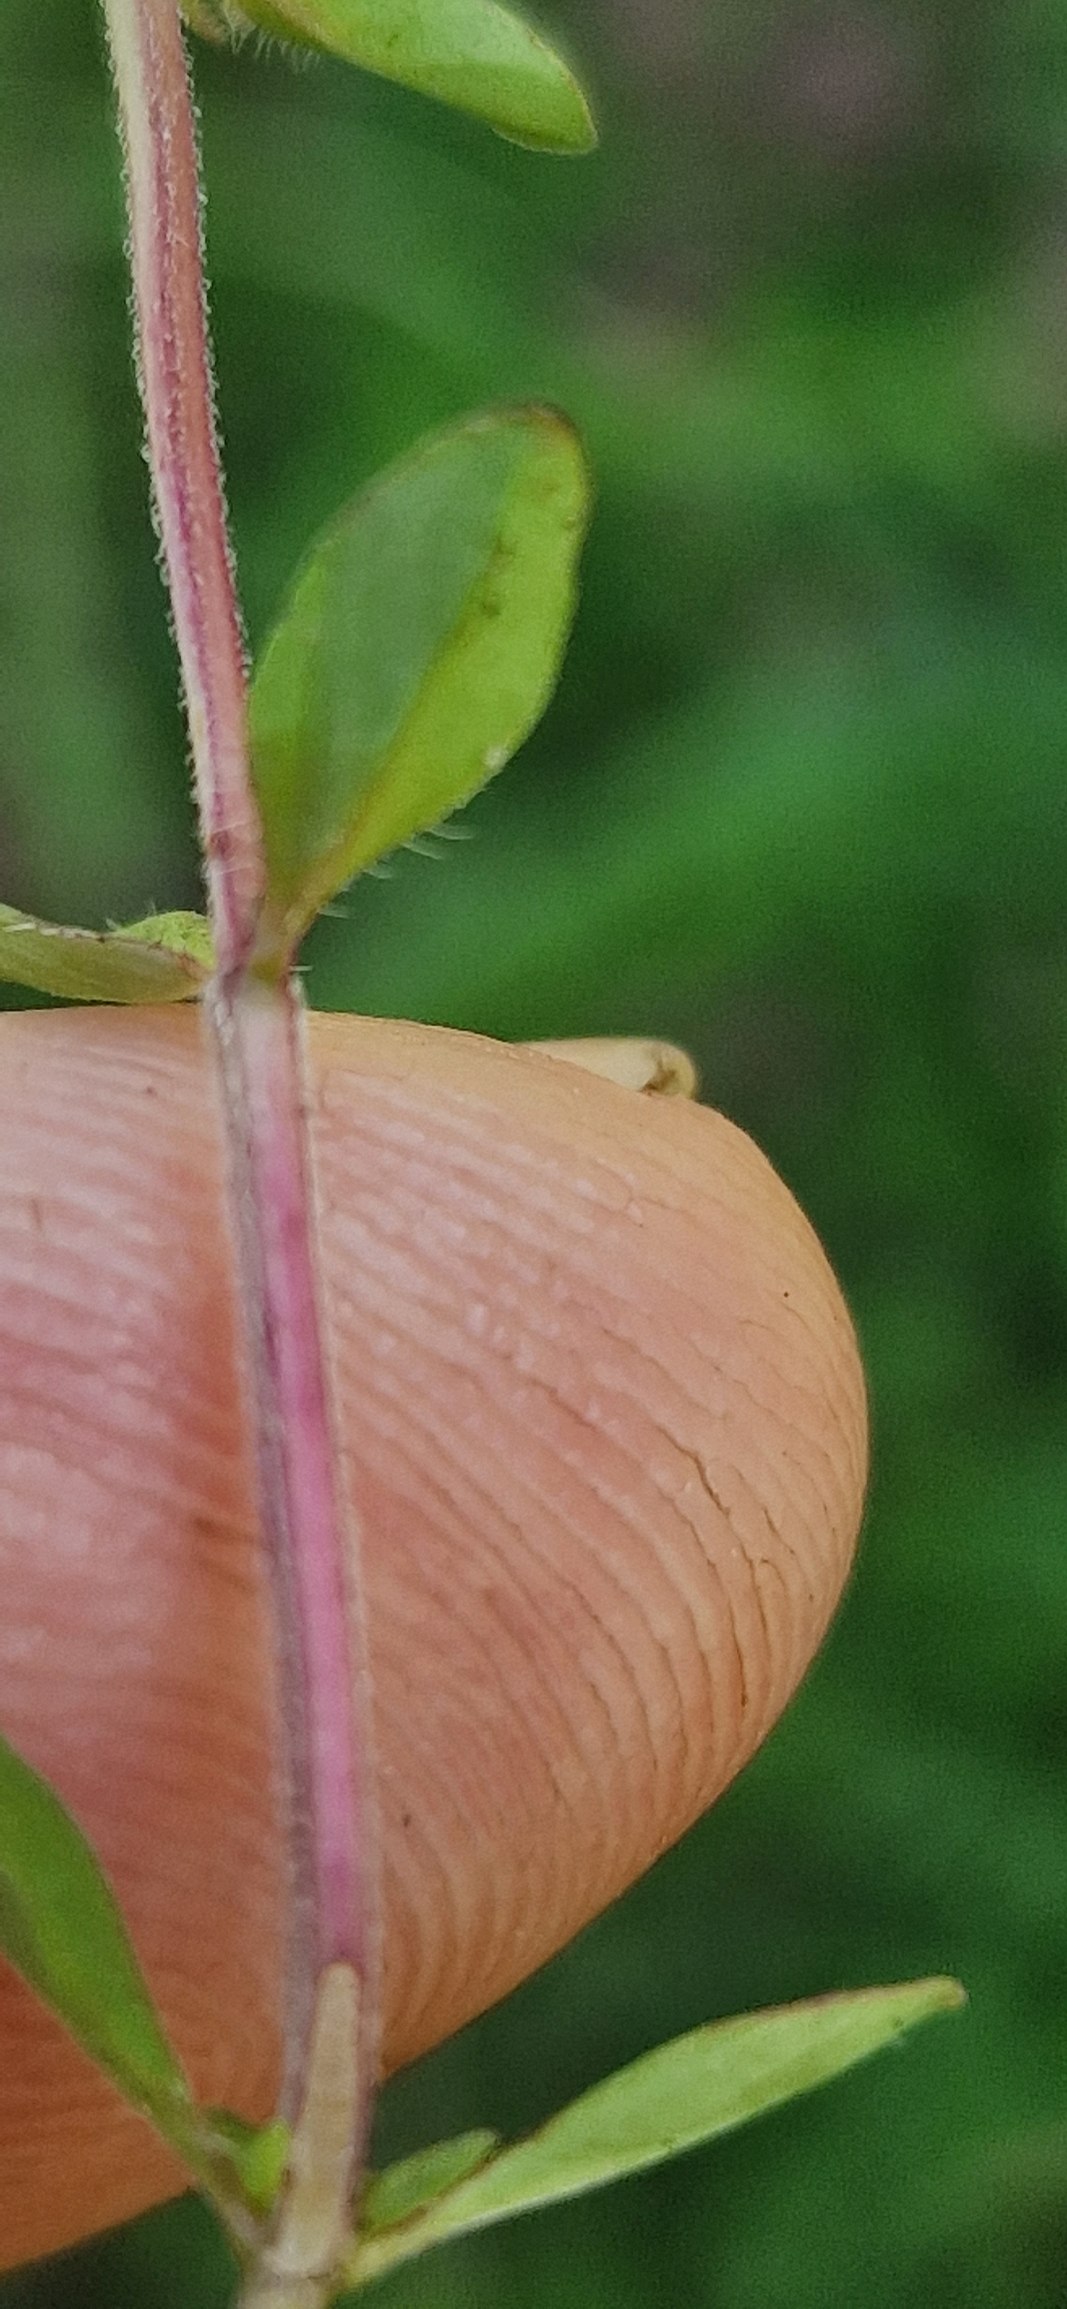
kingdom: Plantae
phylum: Tracheophyta
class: Magnoliopsida
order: Lamiales
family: Lamiaceae
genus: Thymus
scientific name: Thymus pulegioides
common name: Bredbladet timian
